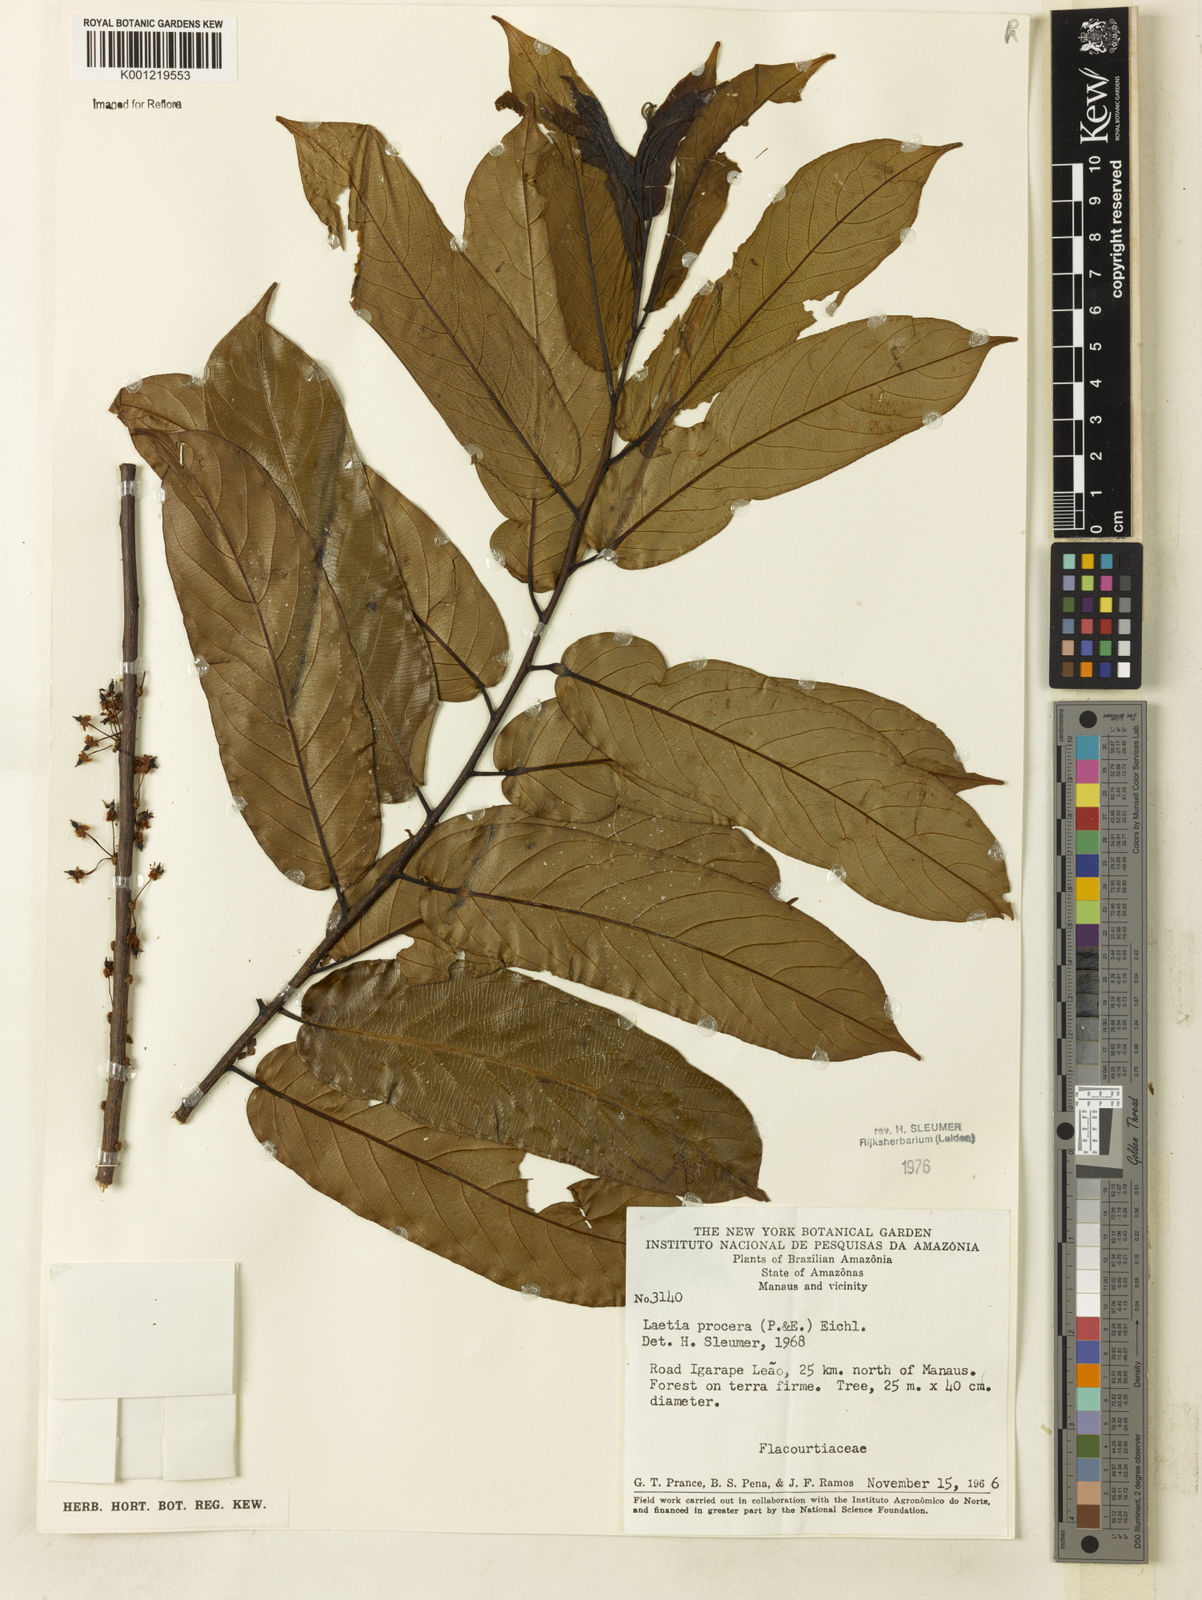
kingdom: Plantae
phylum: Tracheophyta
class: Magnoliopsida
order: Malpighiales
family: Salicaceae
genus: Casearia
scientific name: Casearia bicolor
